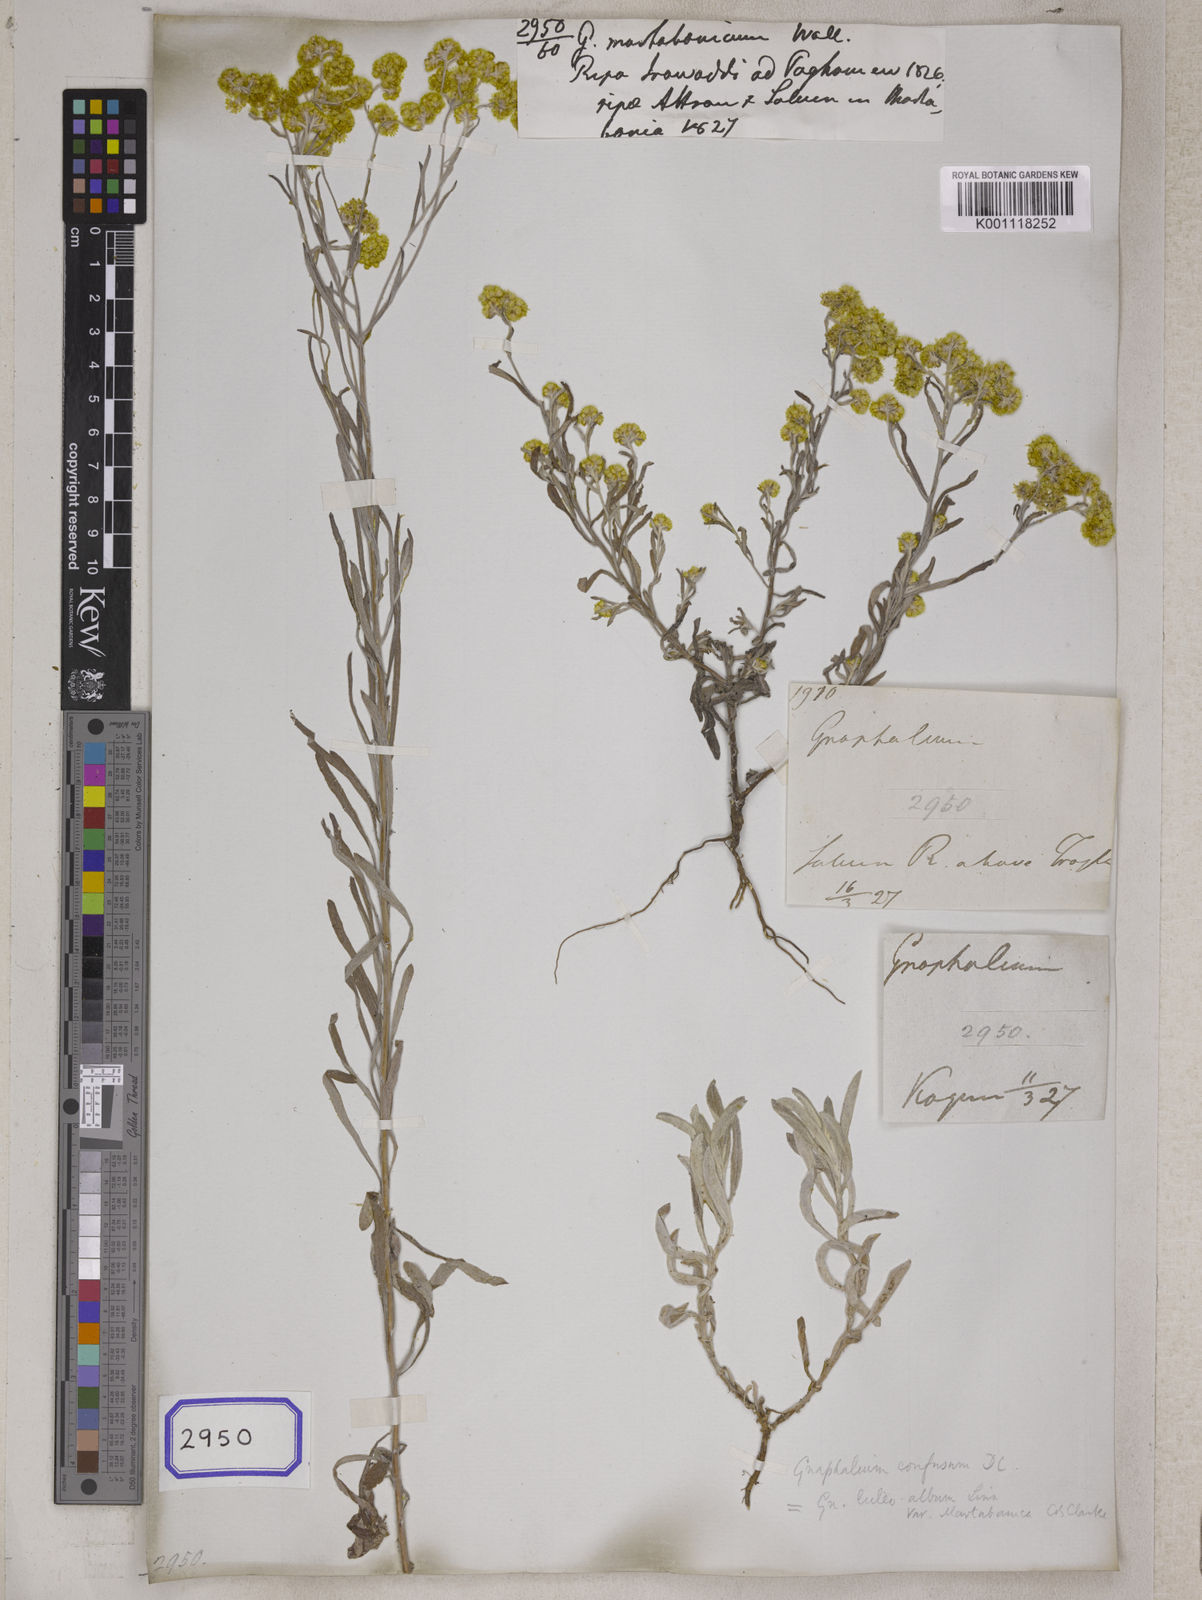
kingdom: Plantae
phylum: Tracheophyta
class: Magnoliopsida
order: Asterales
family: Asteraceae
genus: Helichrysum
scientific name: Helichrysum luteoalbum
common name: Daisy
